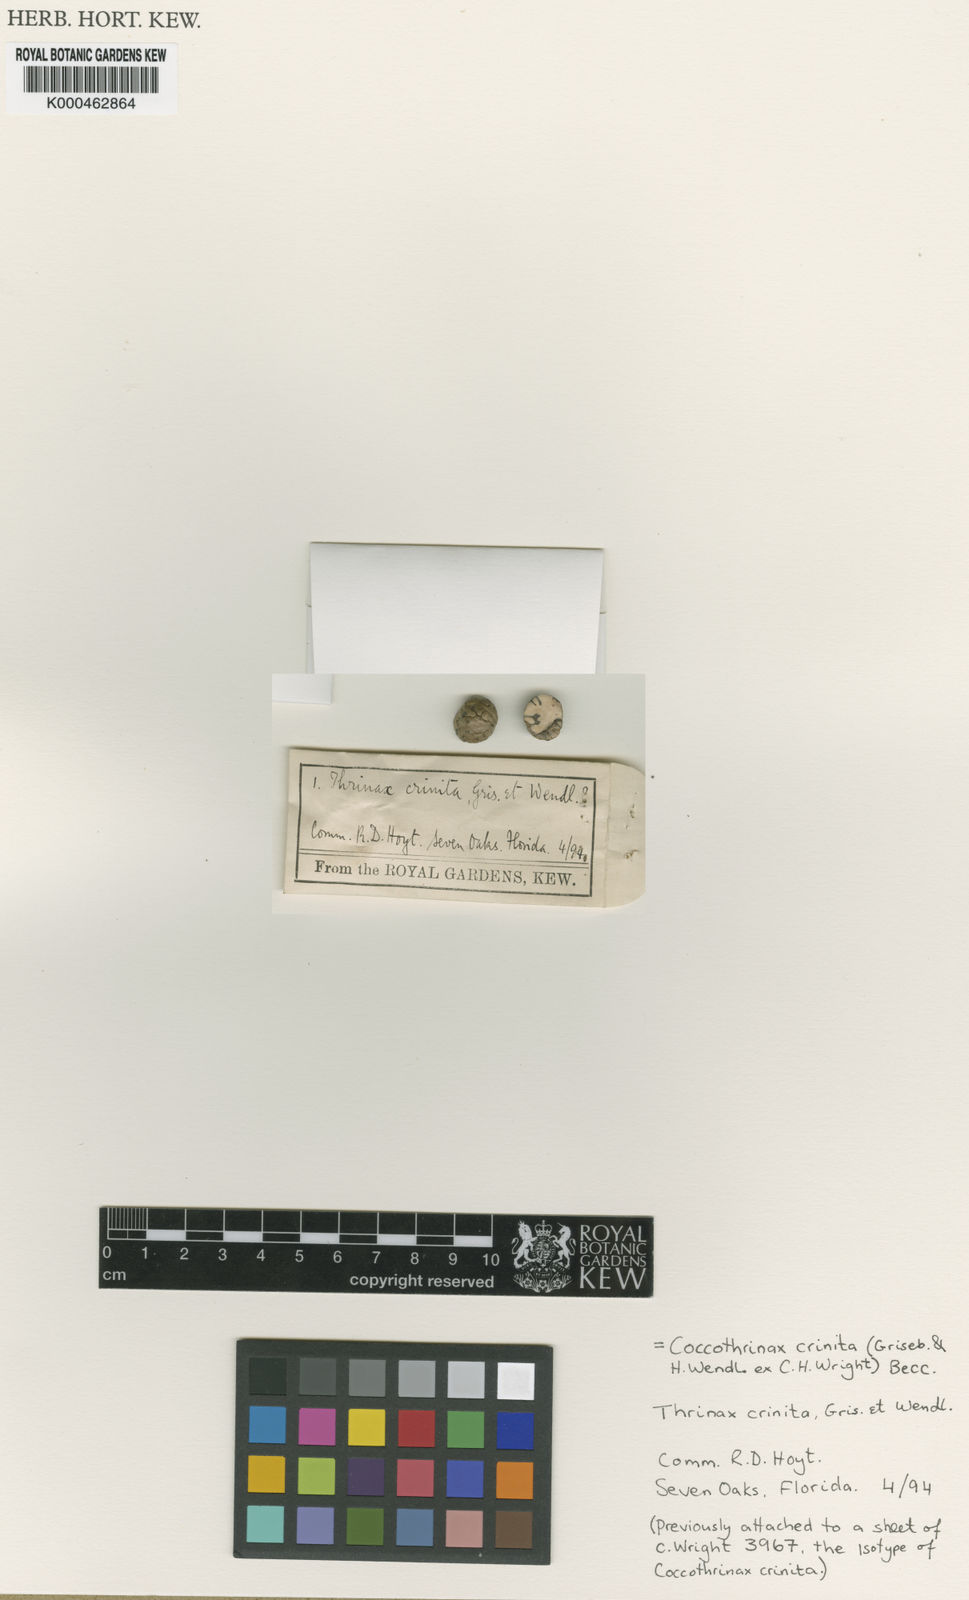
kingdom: Plantae
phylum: Tracheophyta
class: Liliopsida
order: Arecales
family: Arecaceae
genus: Coccothrinax
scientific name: Coccothrinax crinita
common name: Thatch palm
